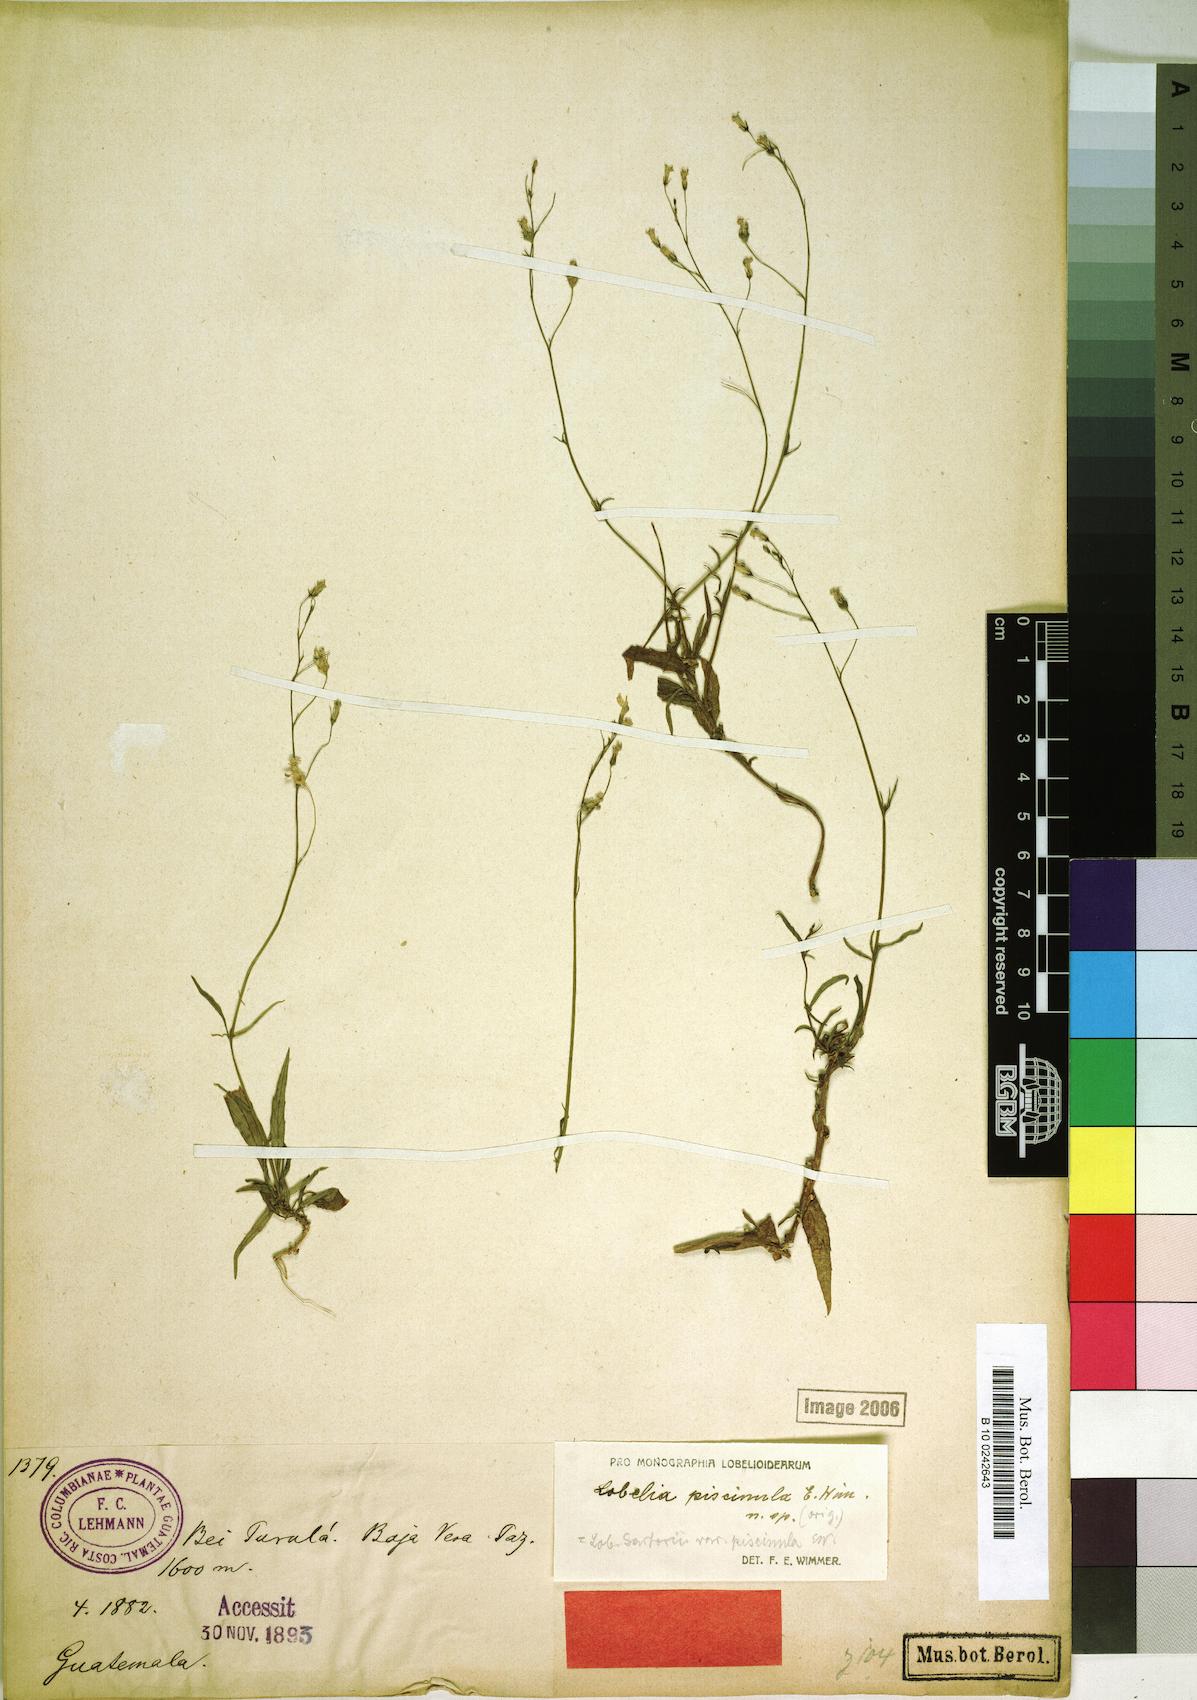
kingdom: Plantae
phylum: Tracheophyta
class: Magnoliopsida
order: Asterales
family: Campanulaceae
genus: Lobelia
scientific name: Lobelia sartorii
